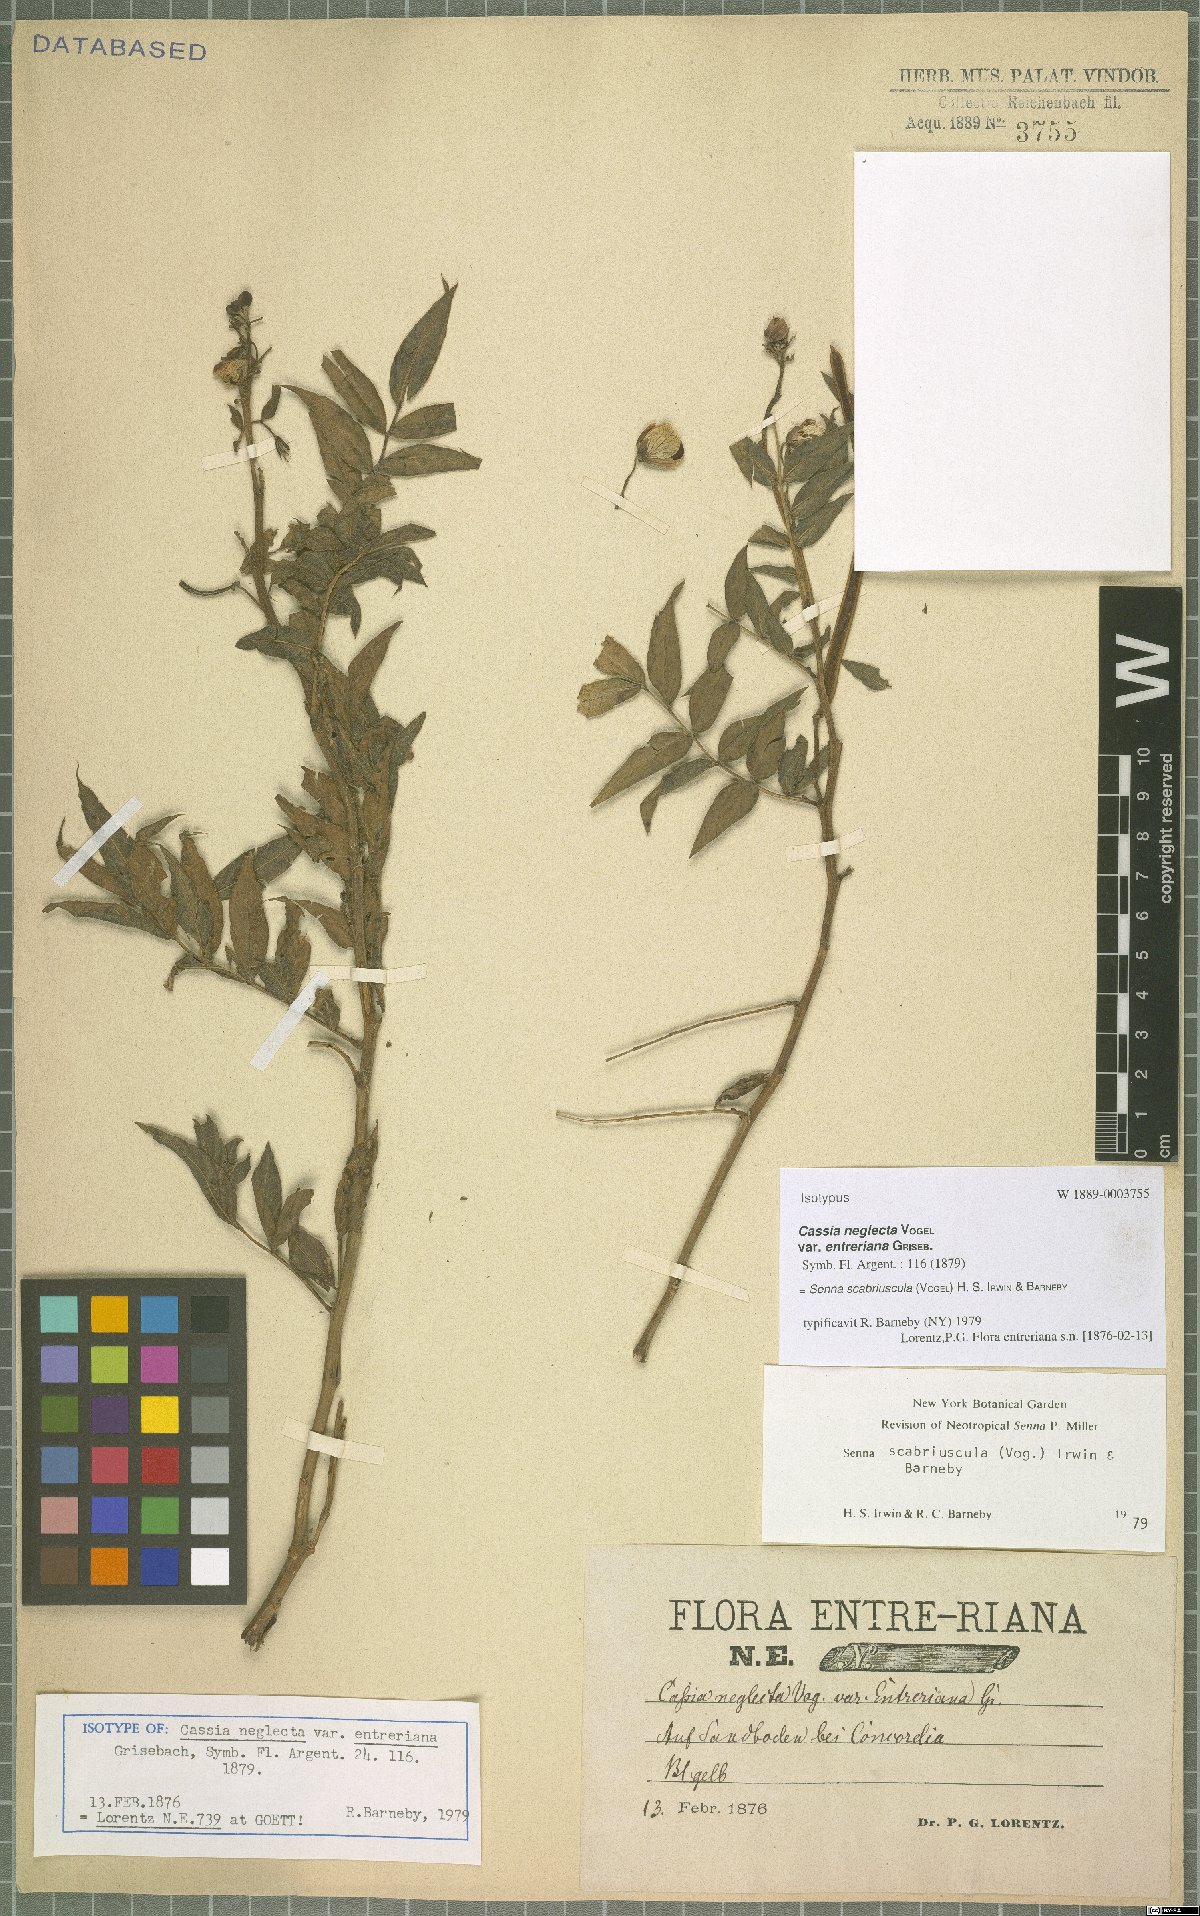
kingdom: Plantae
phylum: Tracheophyta
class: Magnoliopsida
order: Fabales
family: Fabaceae
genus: Senna
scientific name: Senna scabriuscula
